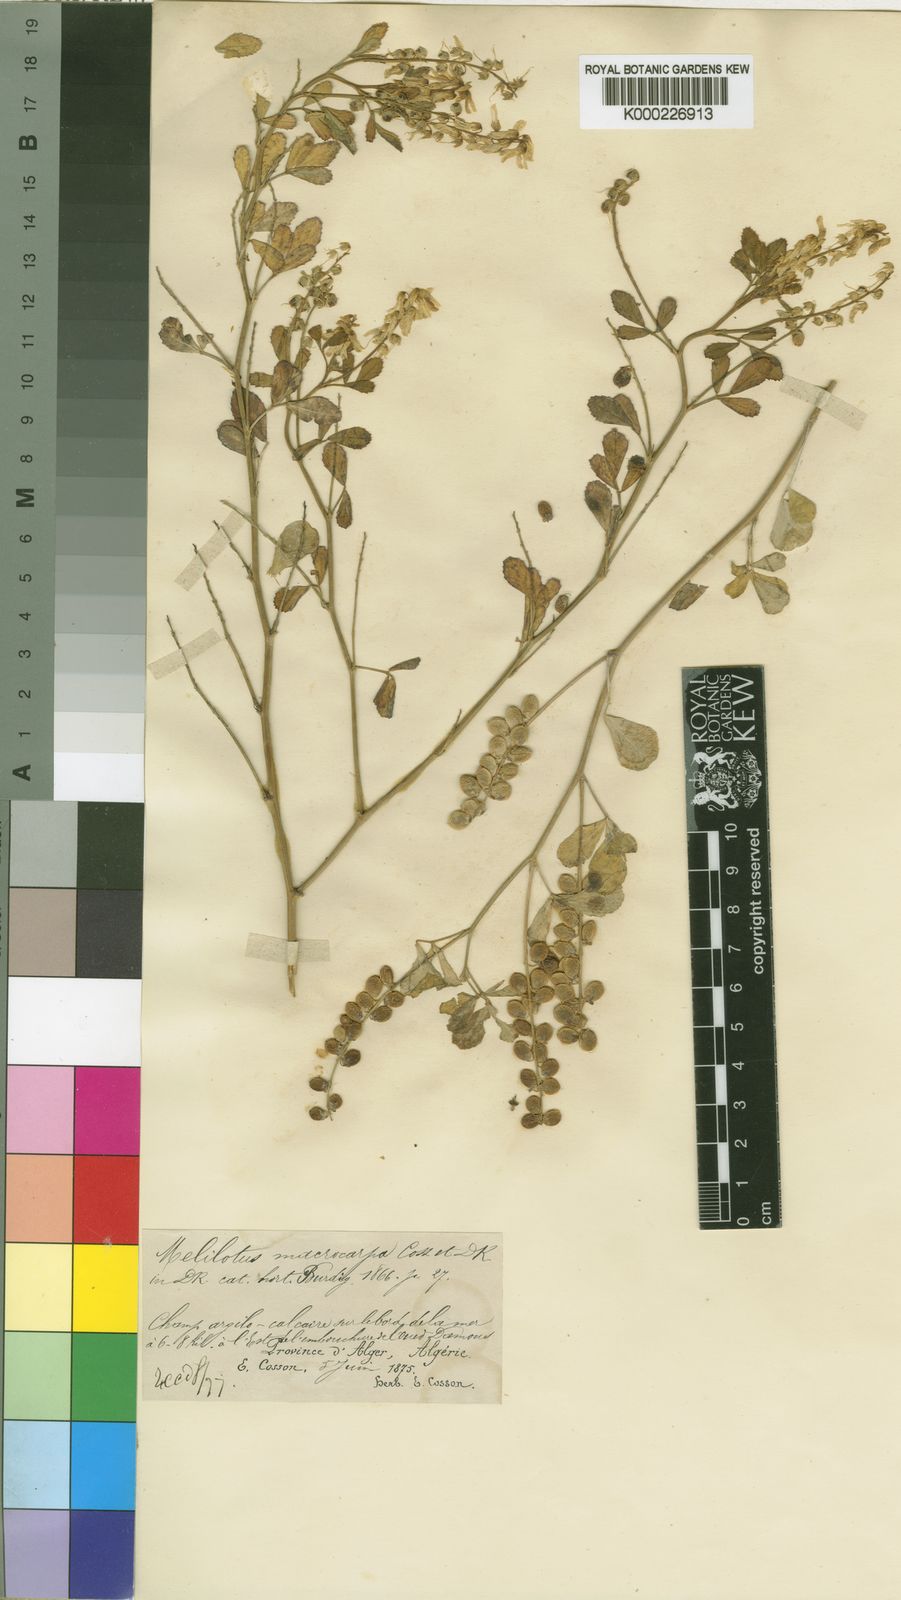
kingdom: Plantae
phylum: Tracheophyta
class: Magnoliopsida
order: Fabales
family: Fabaceae
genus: Melilotus
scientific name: Melilotus macrocarpus
